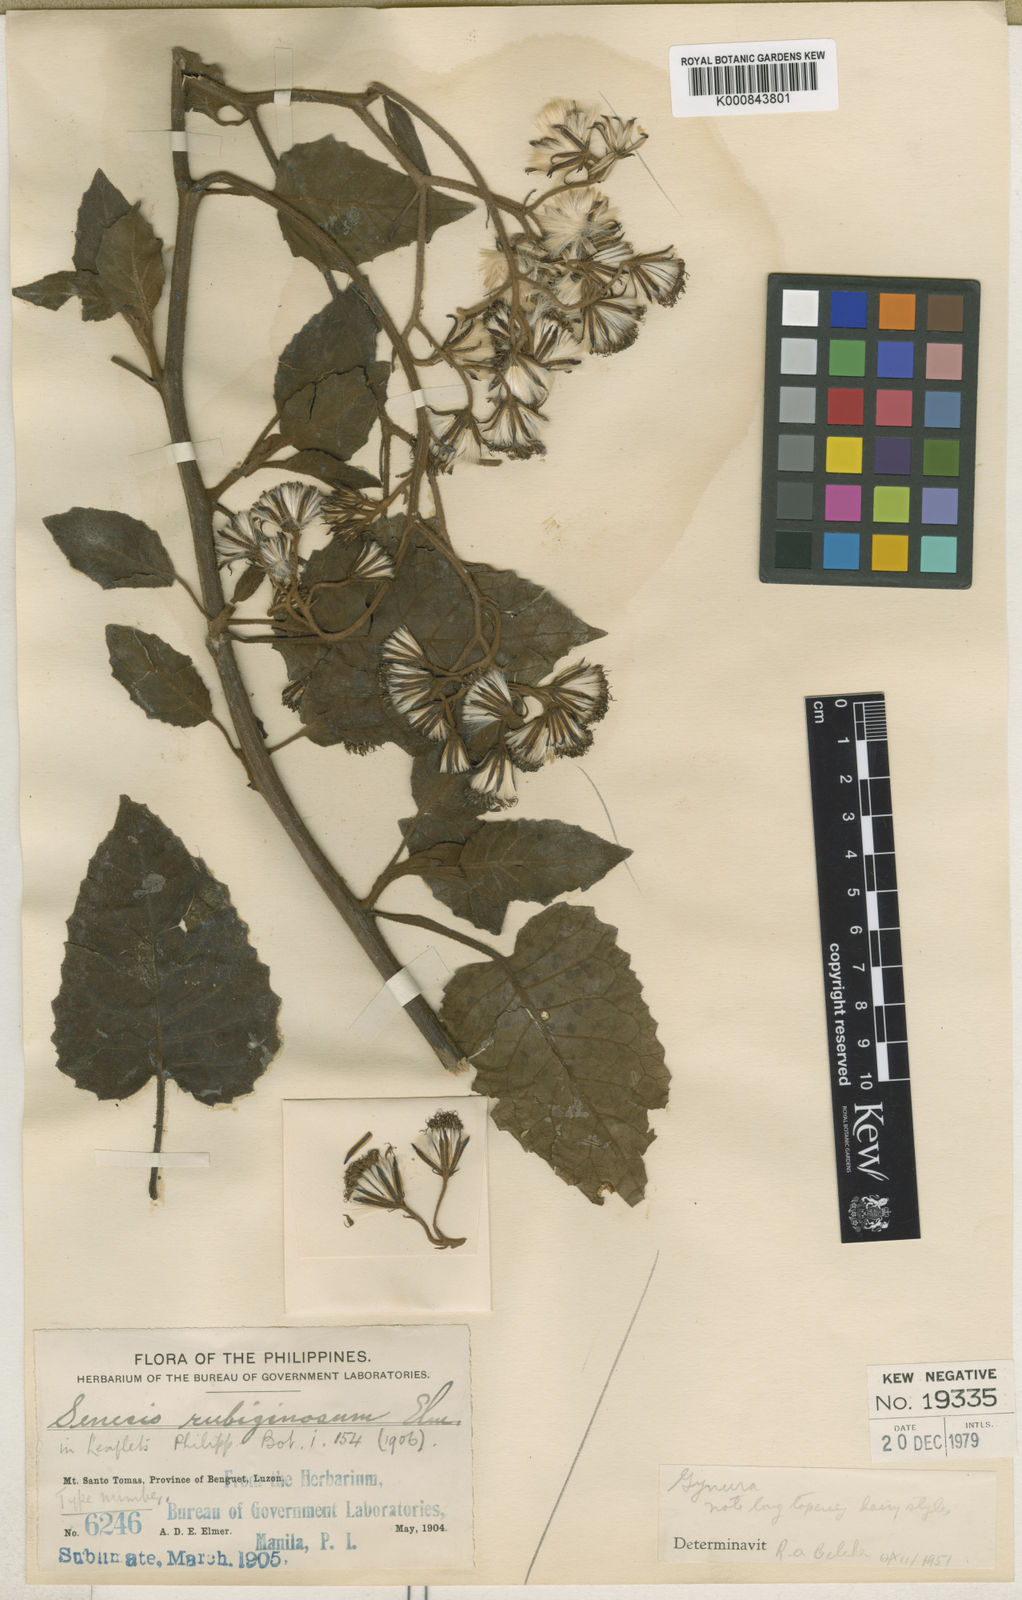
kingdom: Plantae
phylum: Tracheophyta
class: Magnoliopsida
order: Asterales
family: Asteraceae
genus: Gynura
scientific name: Gynura
